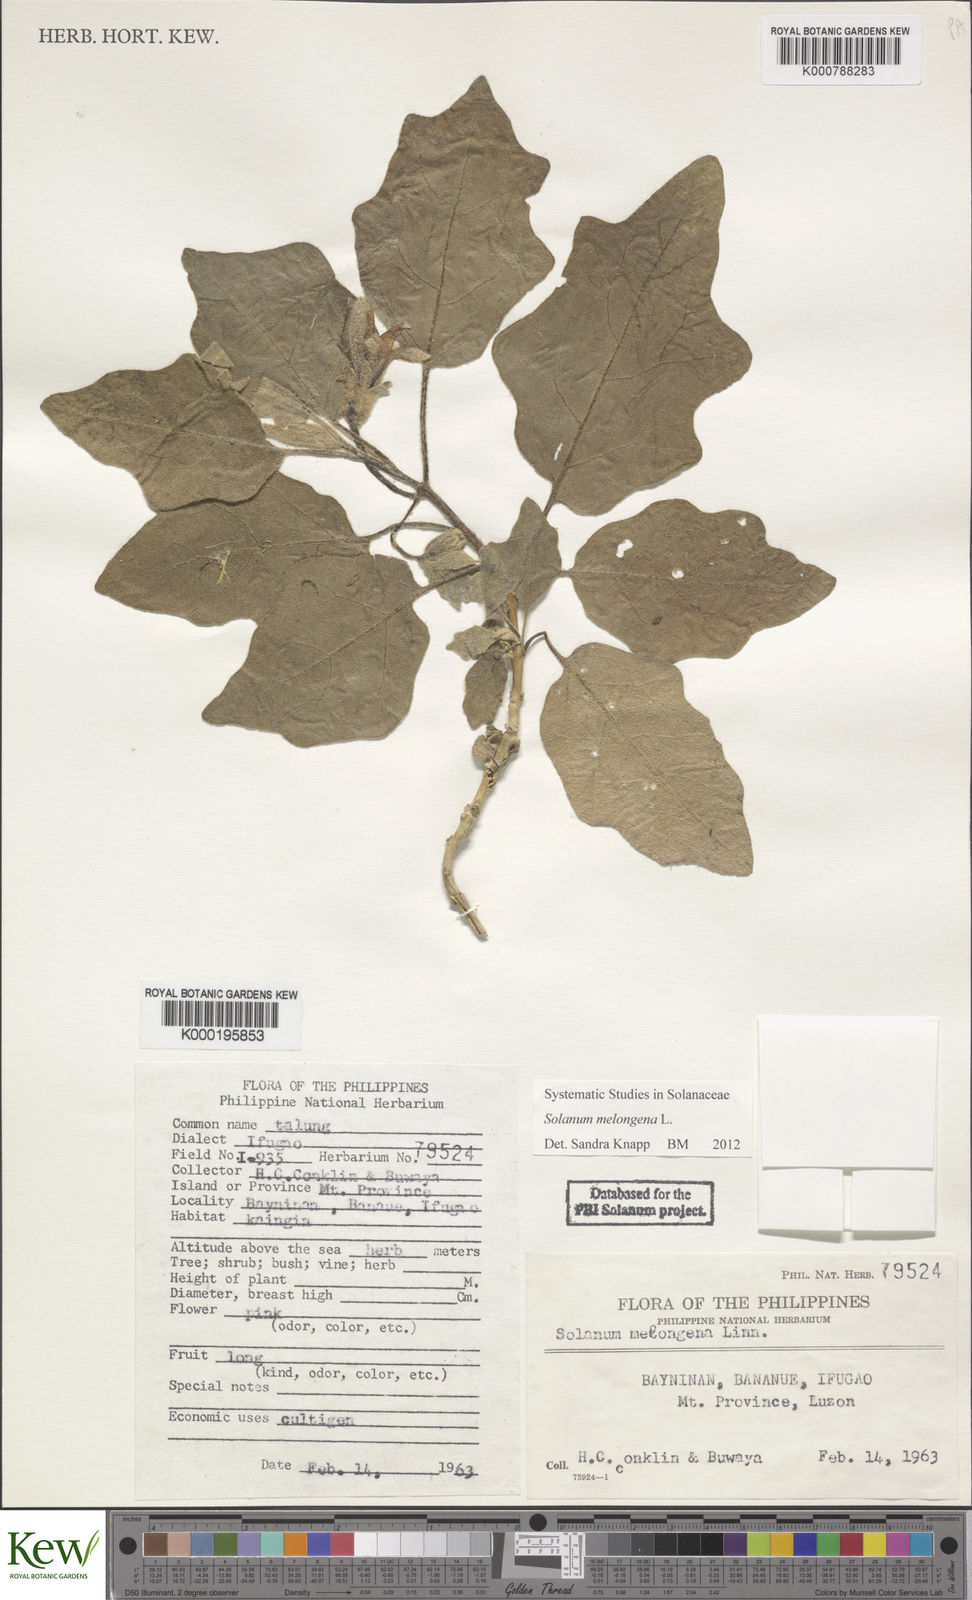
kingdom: Plantae
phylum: Tracheophyta
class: Magnoliopsida
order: Solanales
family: Solanaceae
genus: Solanum
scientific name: Solanum melongena
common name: Eggplant
